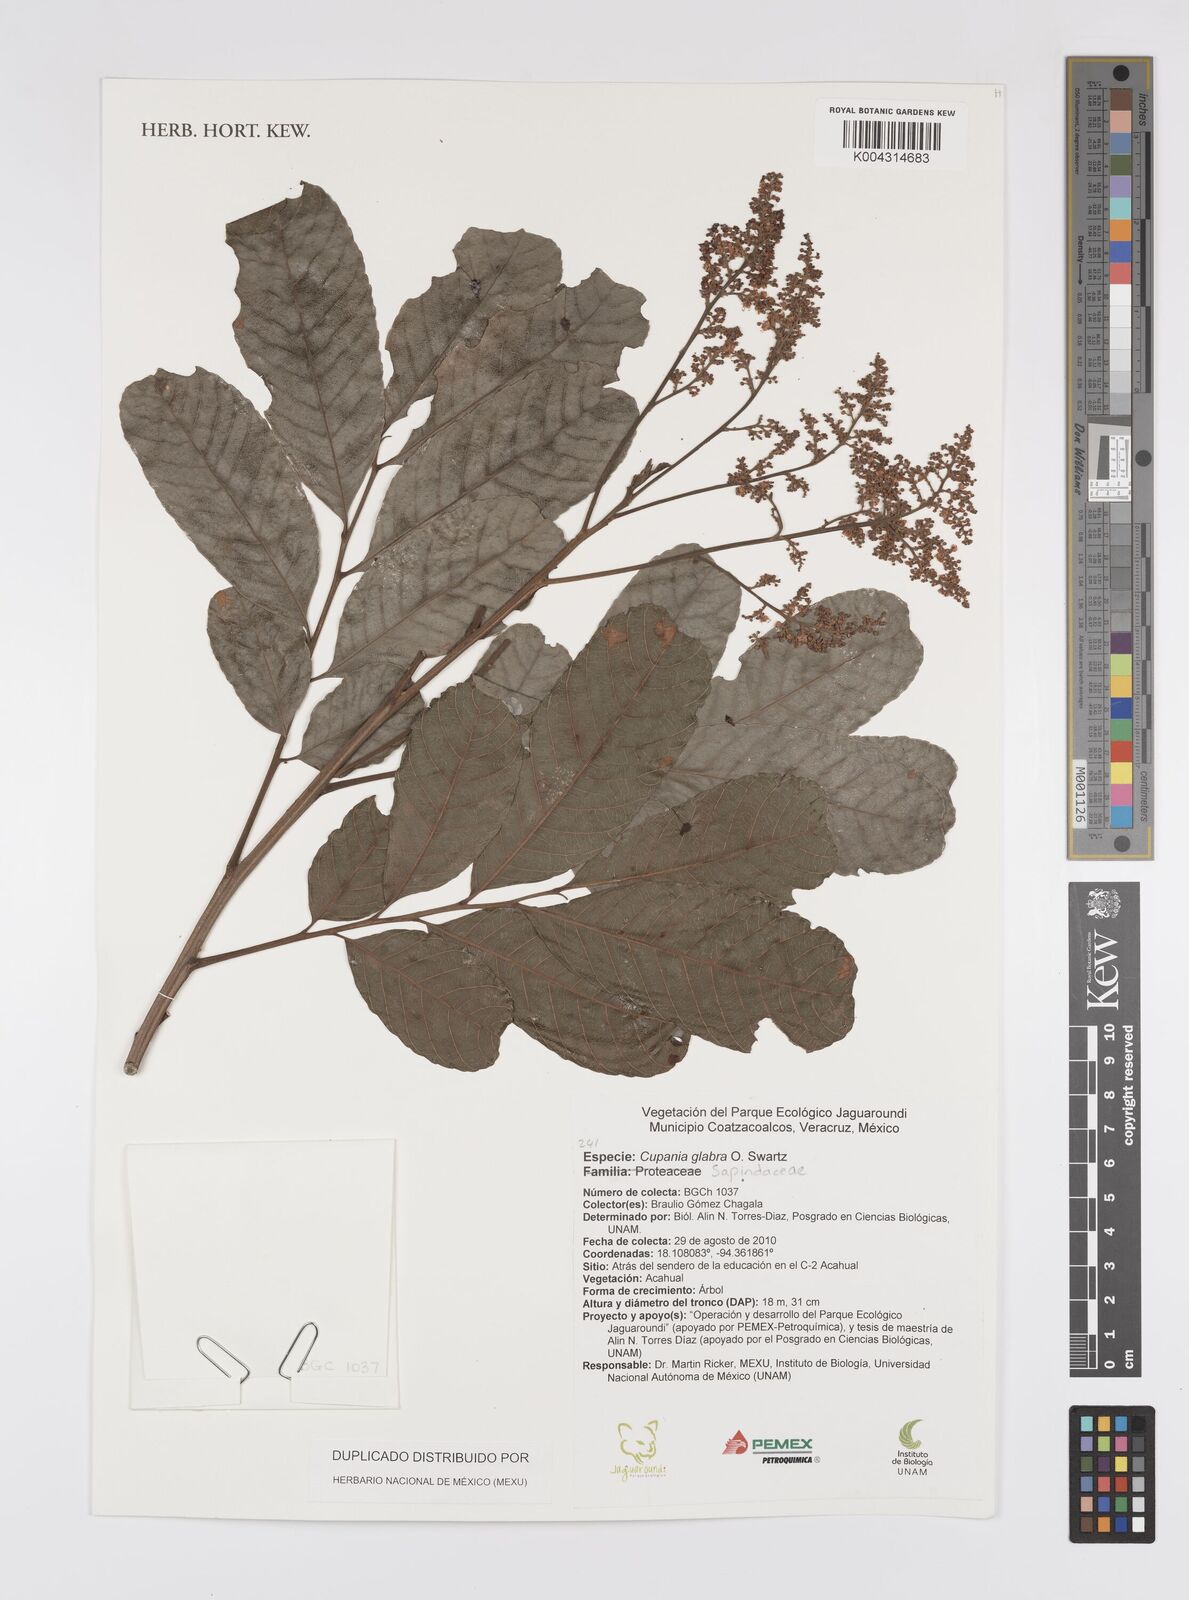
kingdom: Plantae
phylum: Tracheophyta
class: Magnoliopsida
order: Sapindales
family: Sapindaceae
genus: Cupania
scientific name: Cupania
